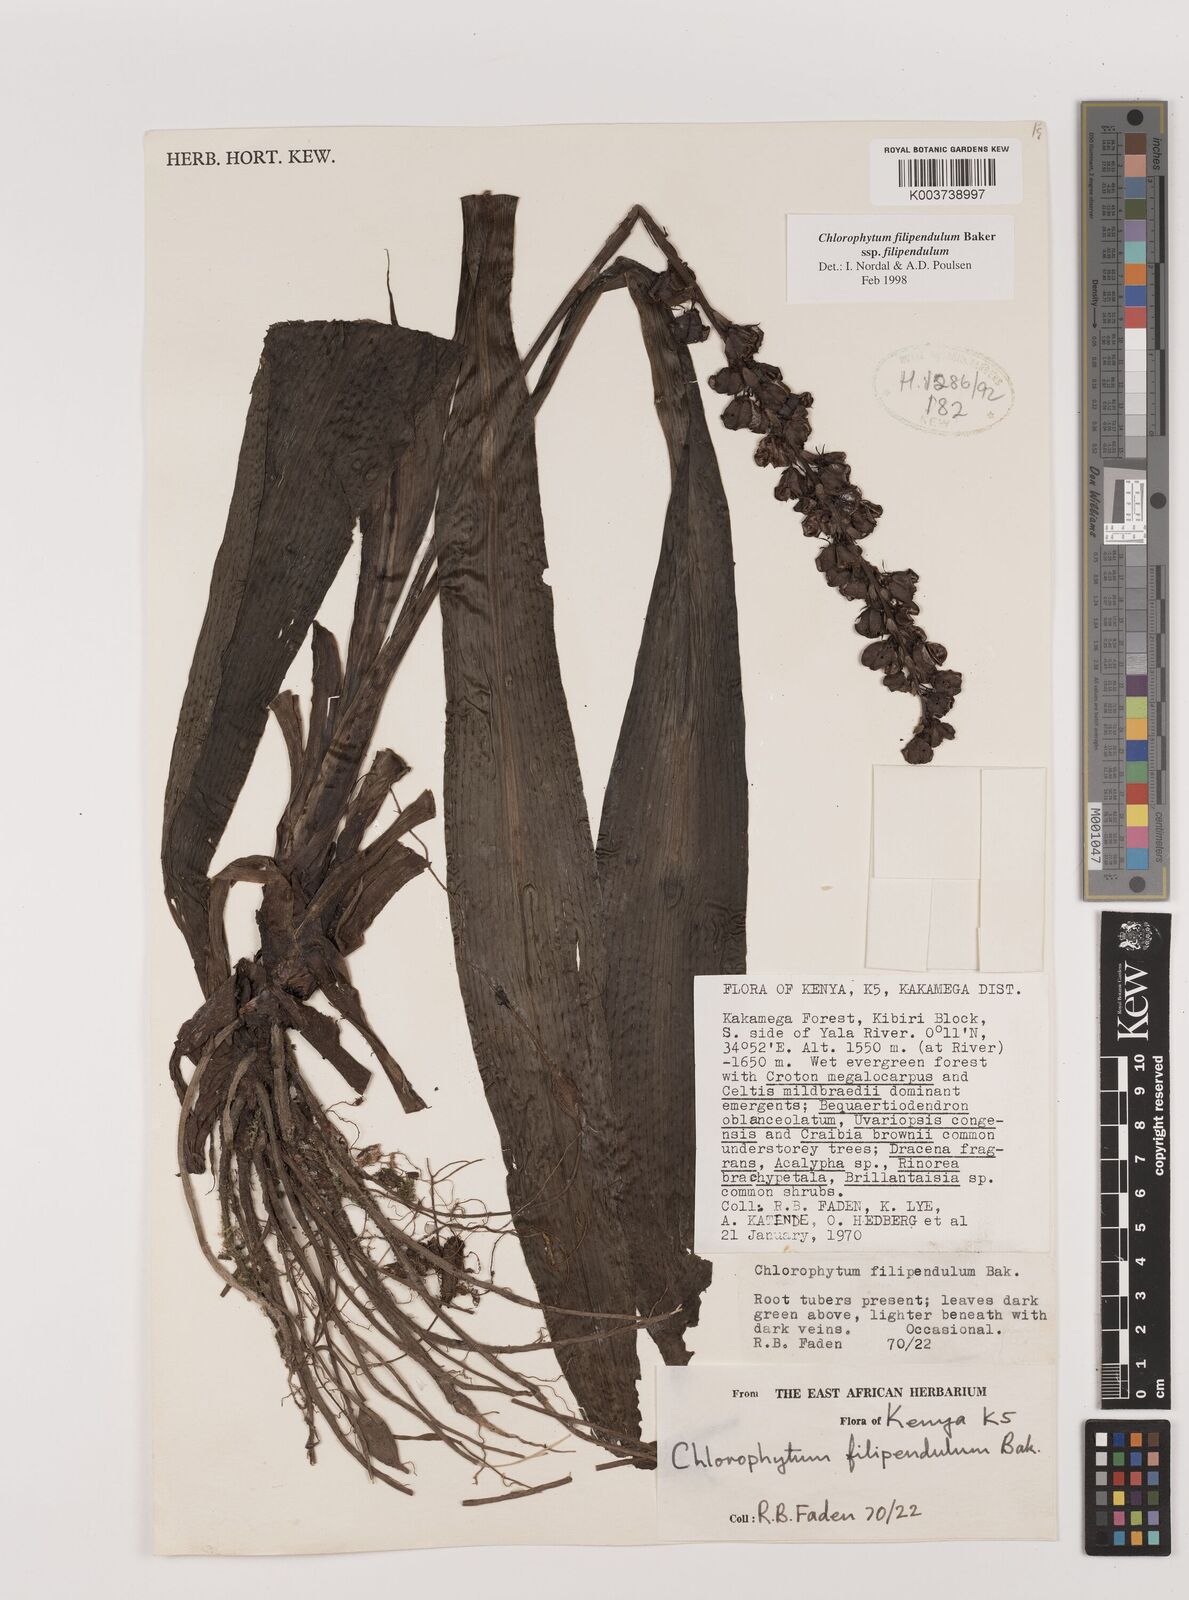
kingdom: Plantae
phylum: Tracheophyta
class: Liliopsida
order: Asparagales
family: Asparagaceae
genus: Chlorophytum
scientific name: Chlorophytum filipendulum
